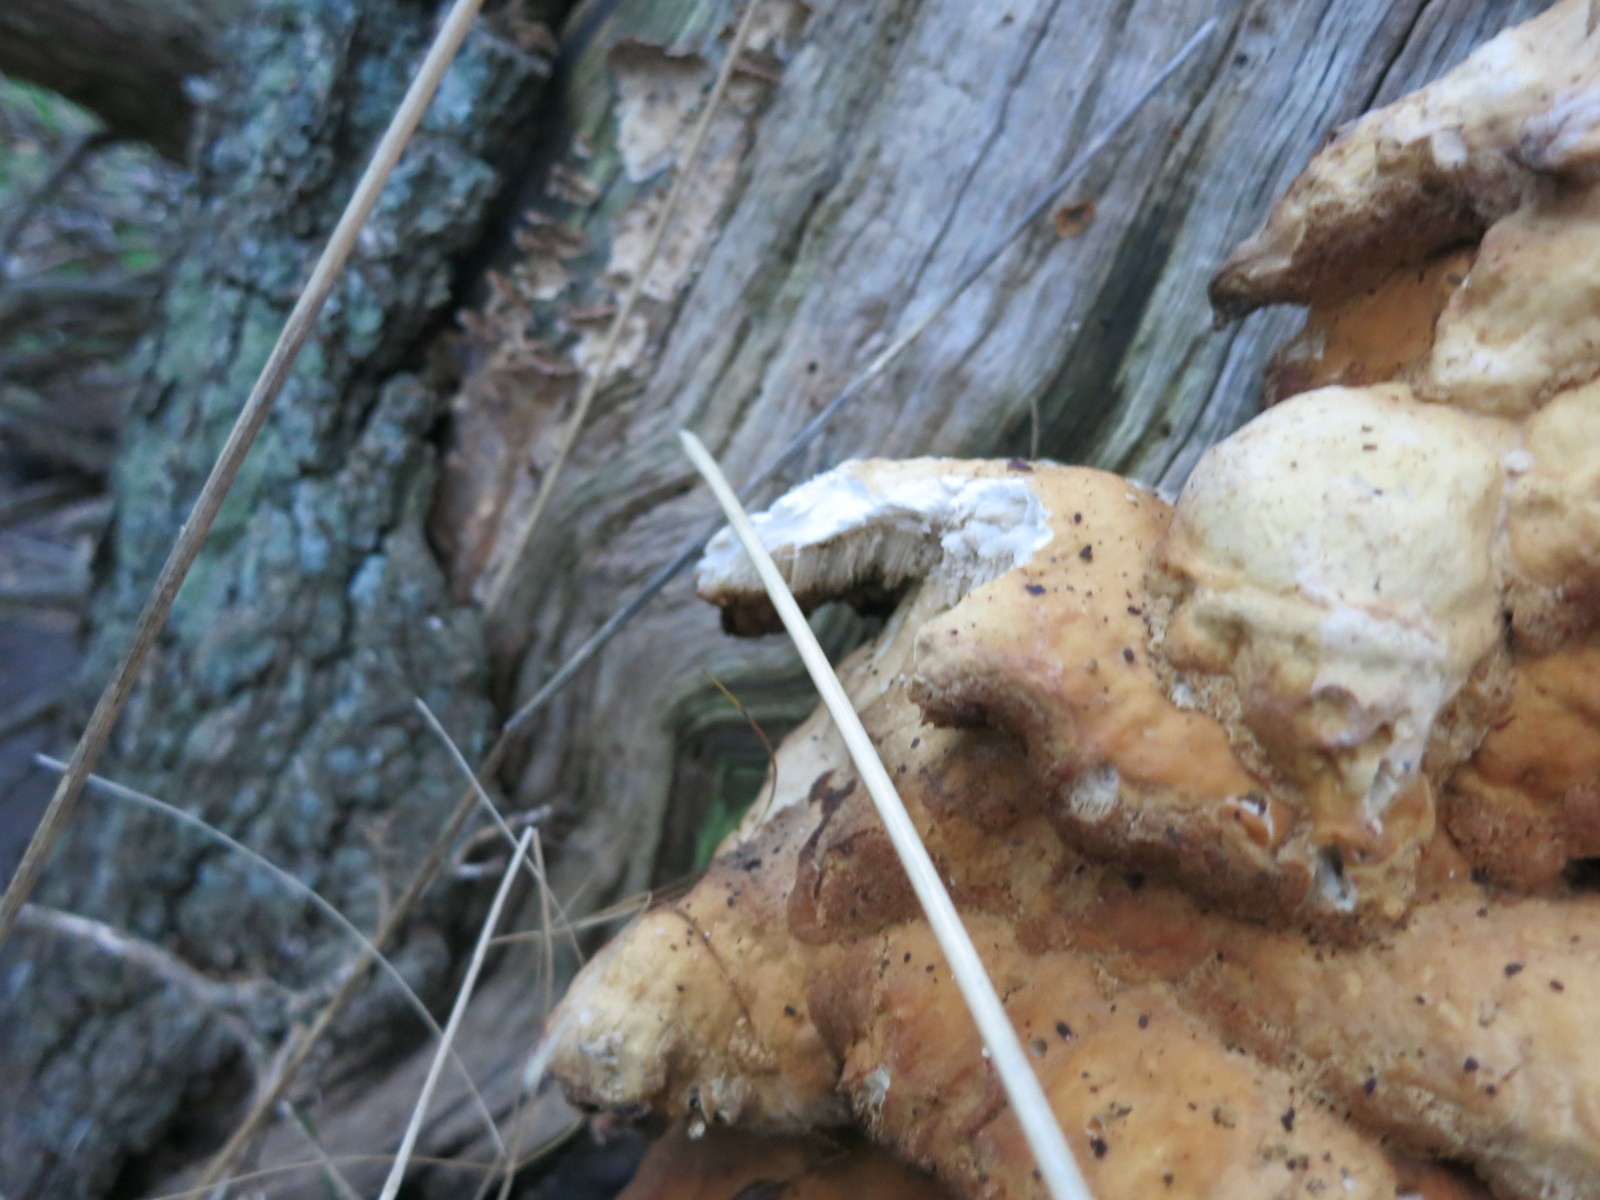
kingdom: Fungi
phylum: Basidiomycota
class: Agaricomycetes
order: Polyporales
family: Laetiporaceae
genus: Laetiporus
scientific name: Laetiporus sulphureus
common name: svovlporesvamp
